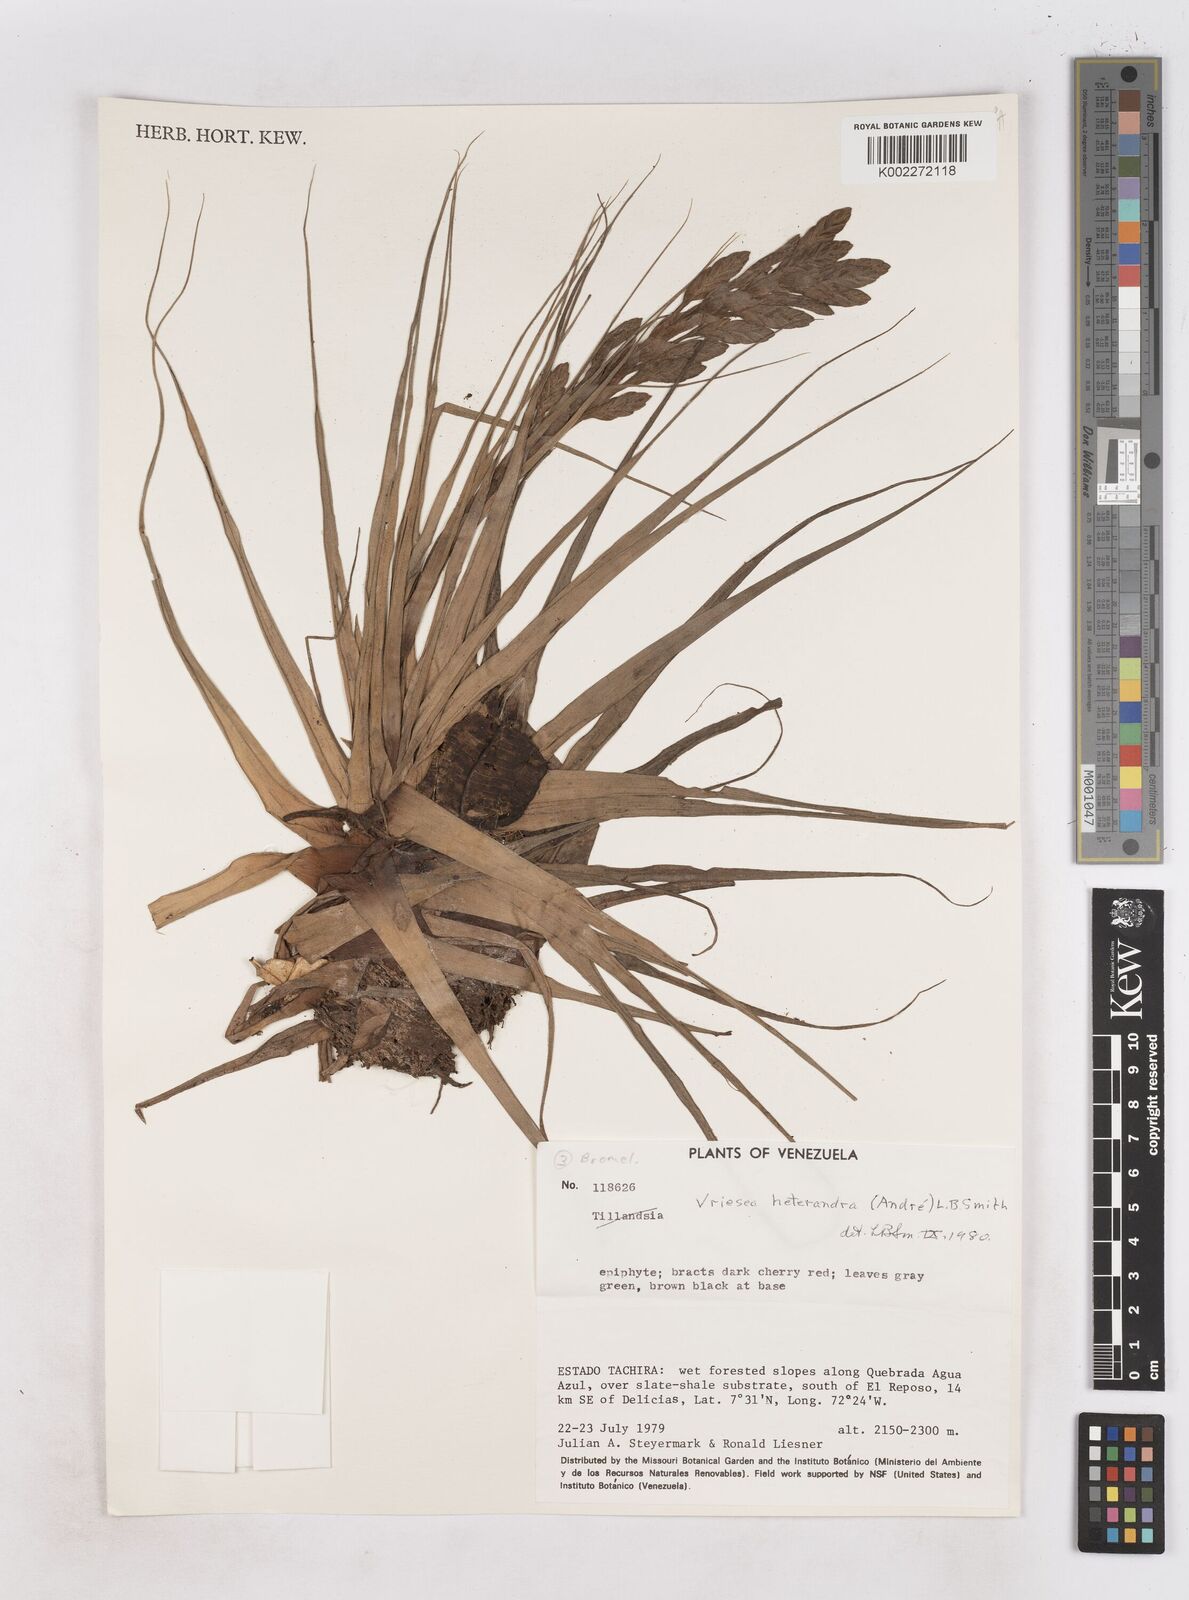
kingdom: Plantae
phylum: Tracheophyta
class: Liliopsida
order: Poales
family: Bromeliaceae
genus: Tillandsia
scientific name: Tillandsia heterandra
